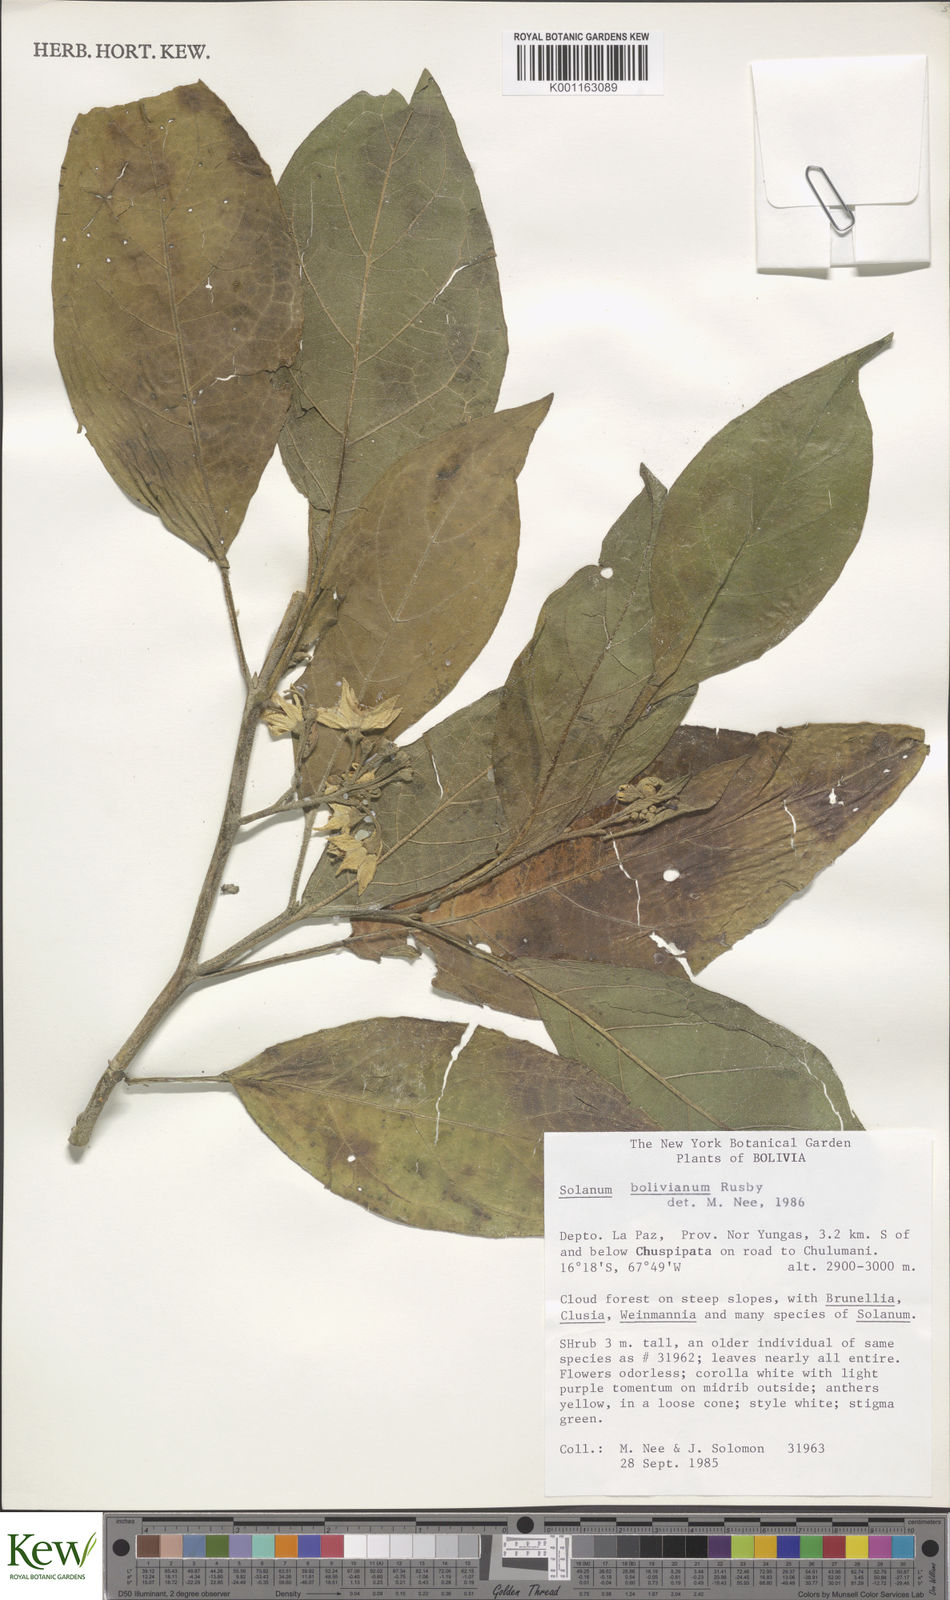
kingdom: Plantae
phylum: Tracheophyta
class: Magnoliopsida
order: Solanales
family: Solanaceae
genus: Solanum
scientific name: Solanum bolivianum
